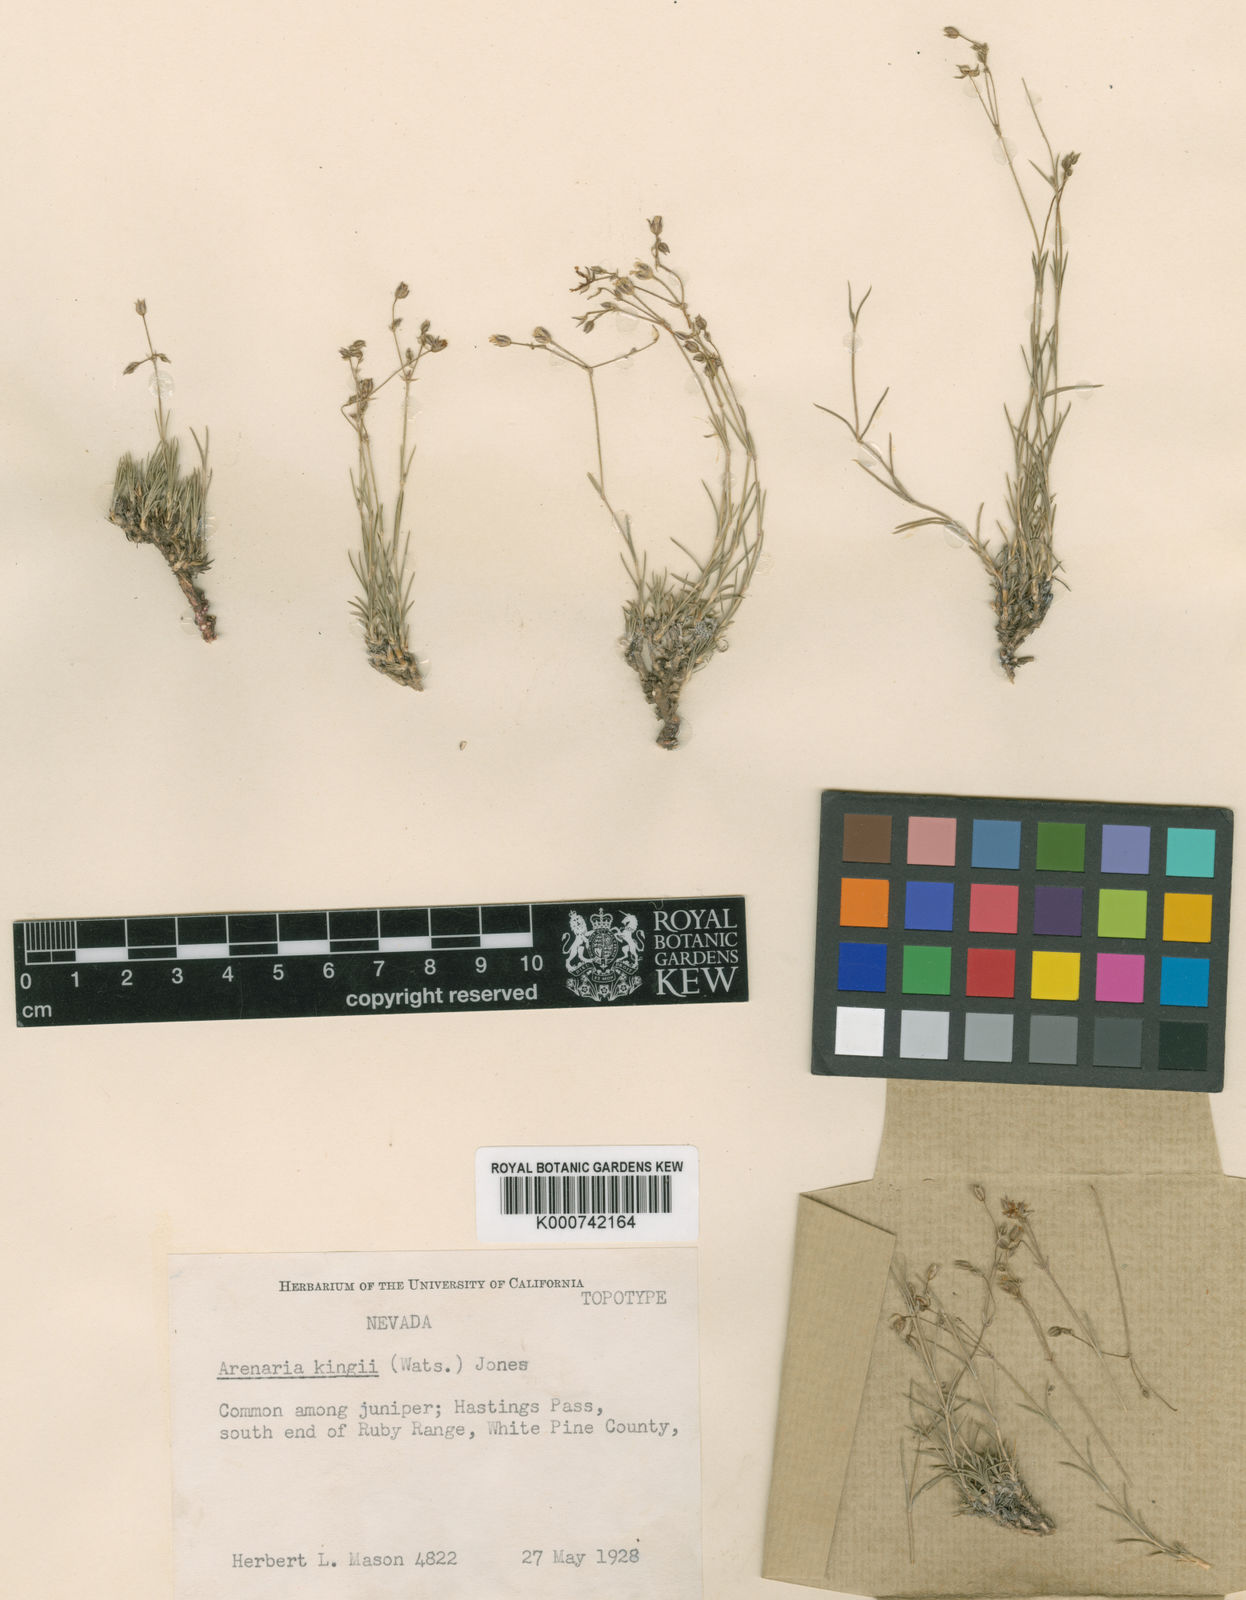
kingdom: Plantae
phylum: Tracheophyta
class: Magnoliopsida
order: Caryophyllales
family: Caryophyllaceae
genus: Eremogone
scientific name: Eremogone kingii
